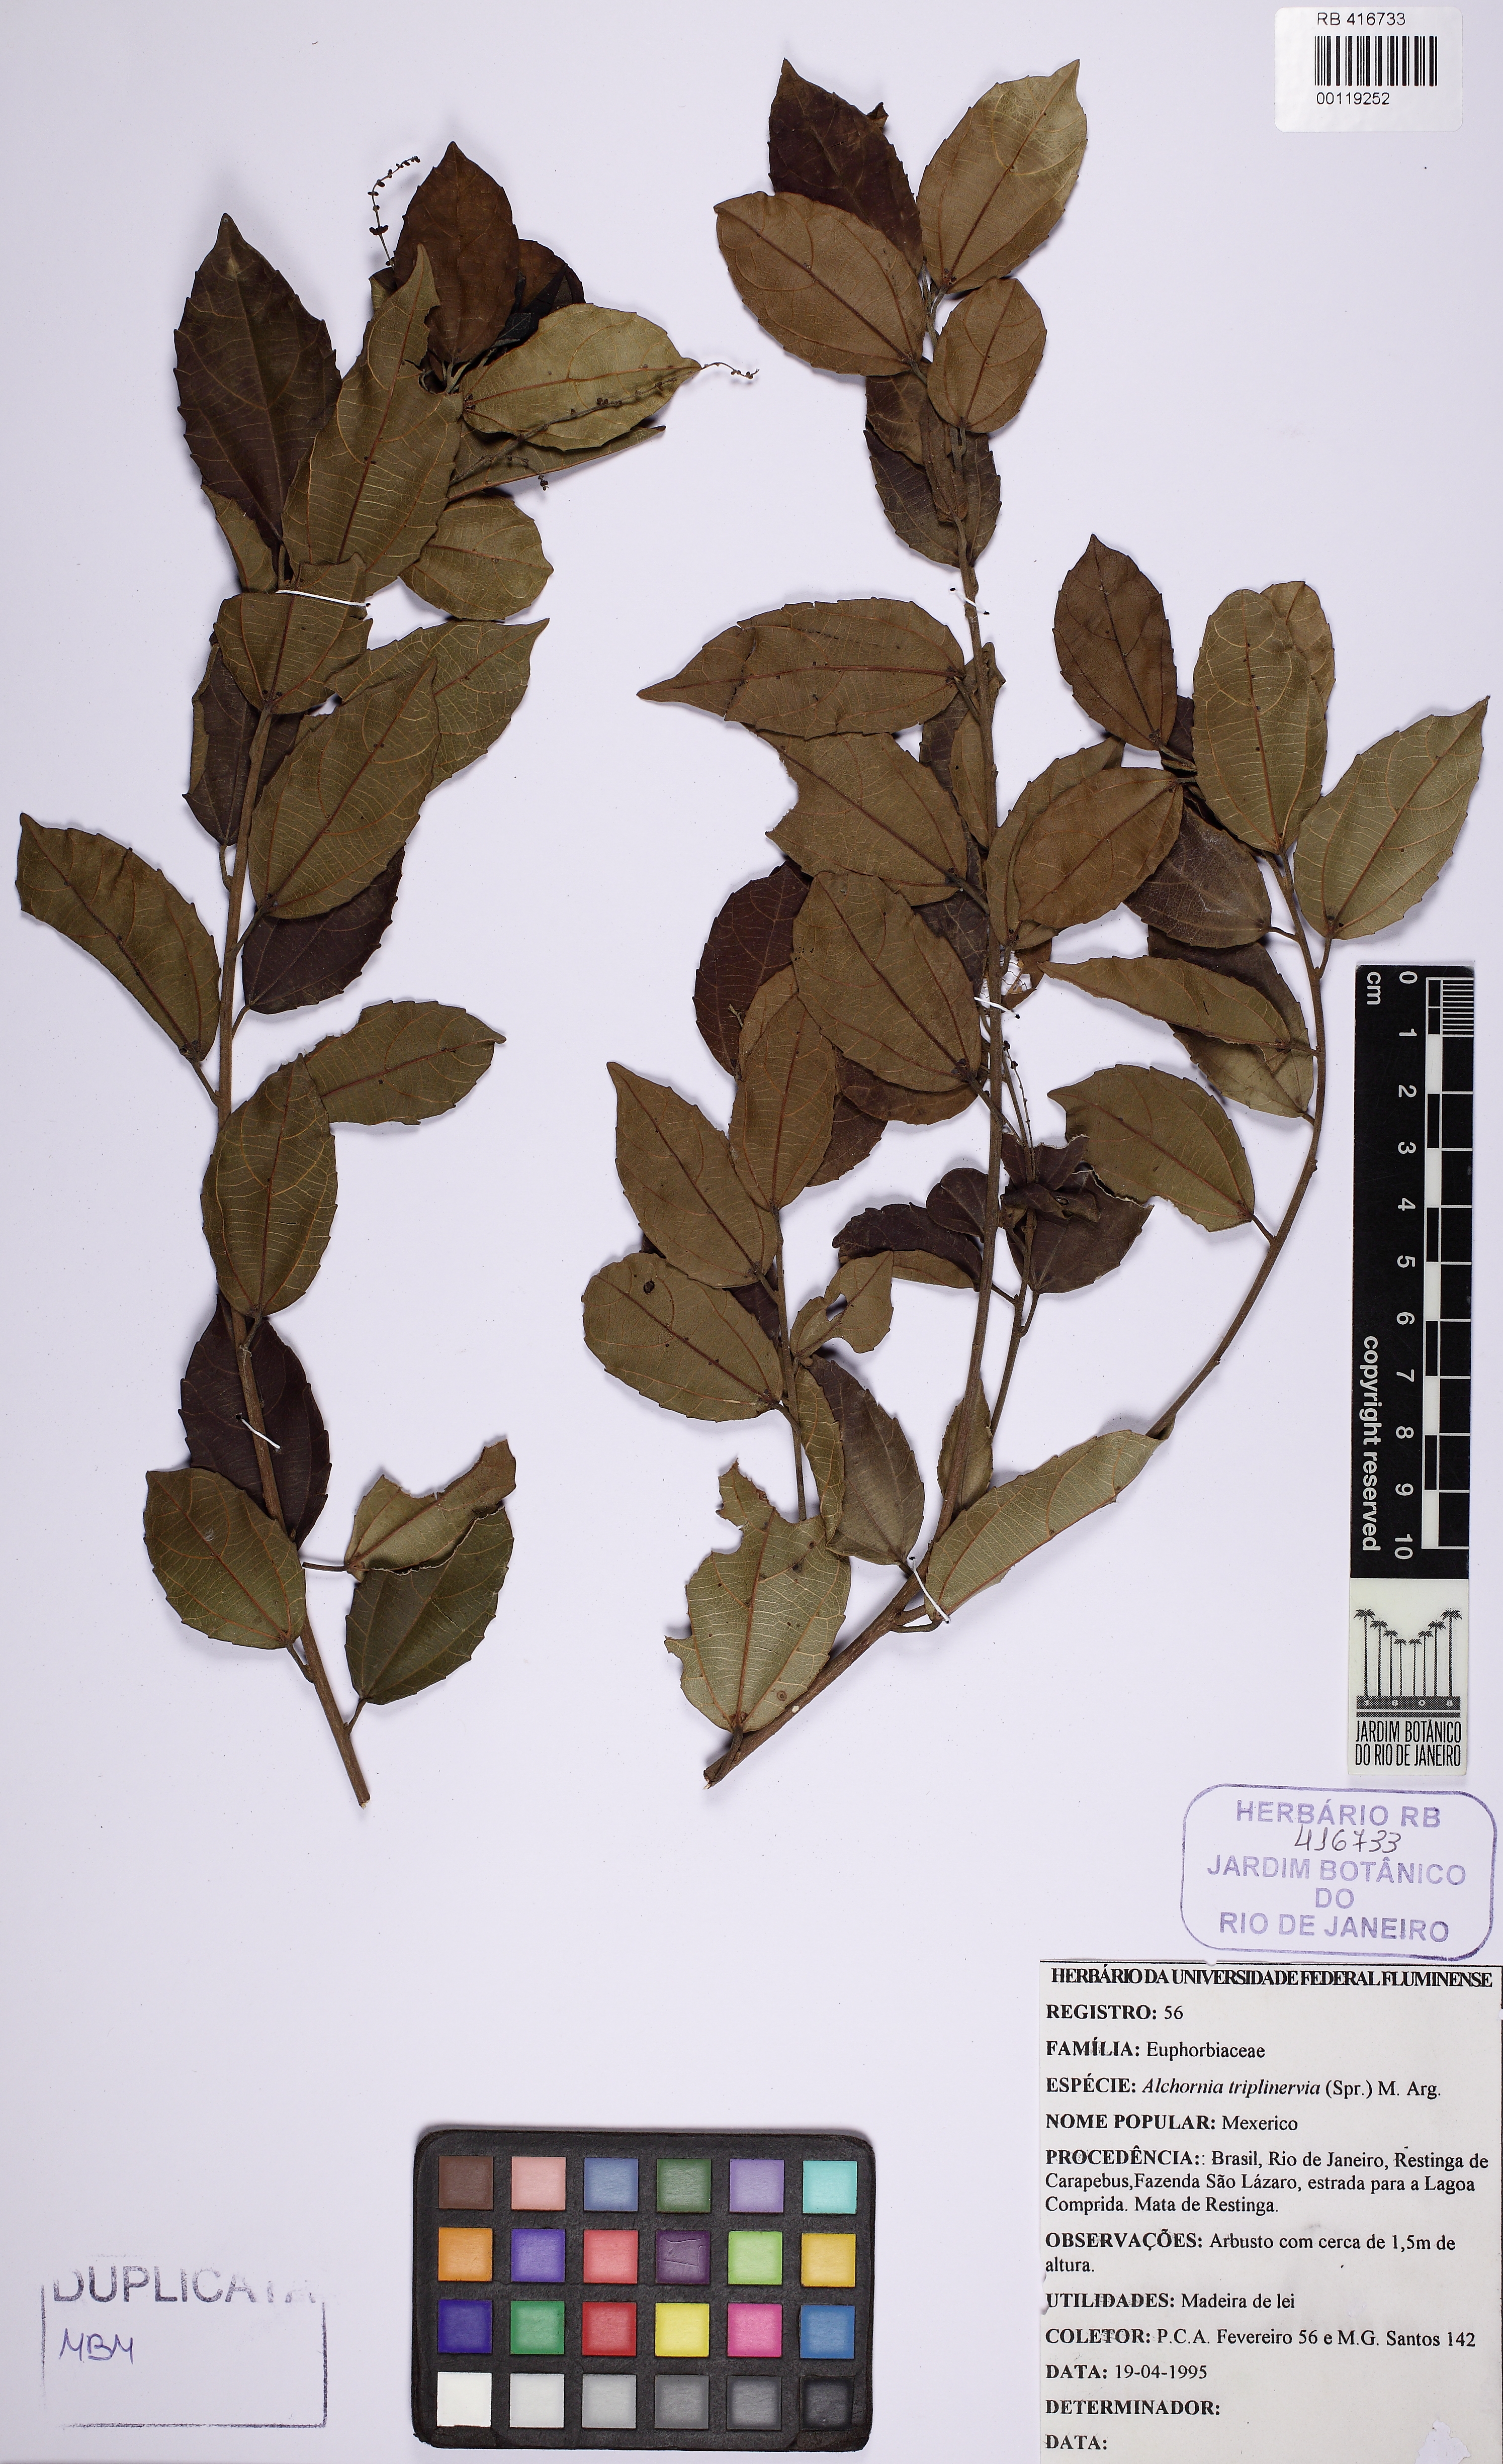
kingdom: Plantae
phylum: Tracheophyta
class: Magnoliopsida
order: Malpighiales
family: Euphorbiaceae
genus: Alchornea
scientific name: Alchornea triplinervia
